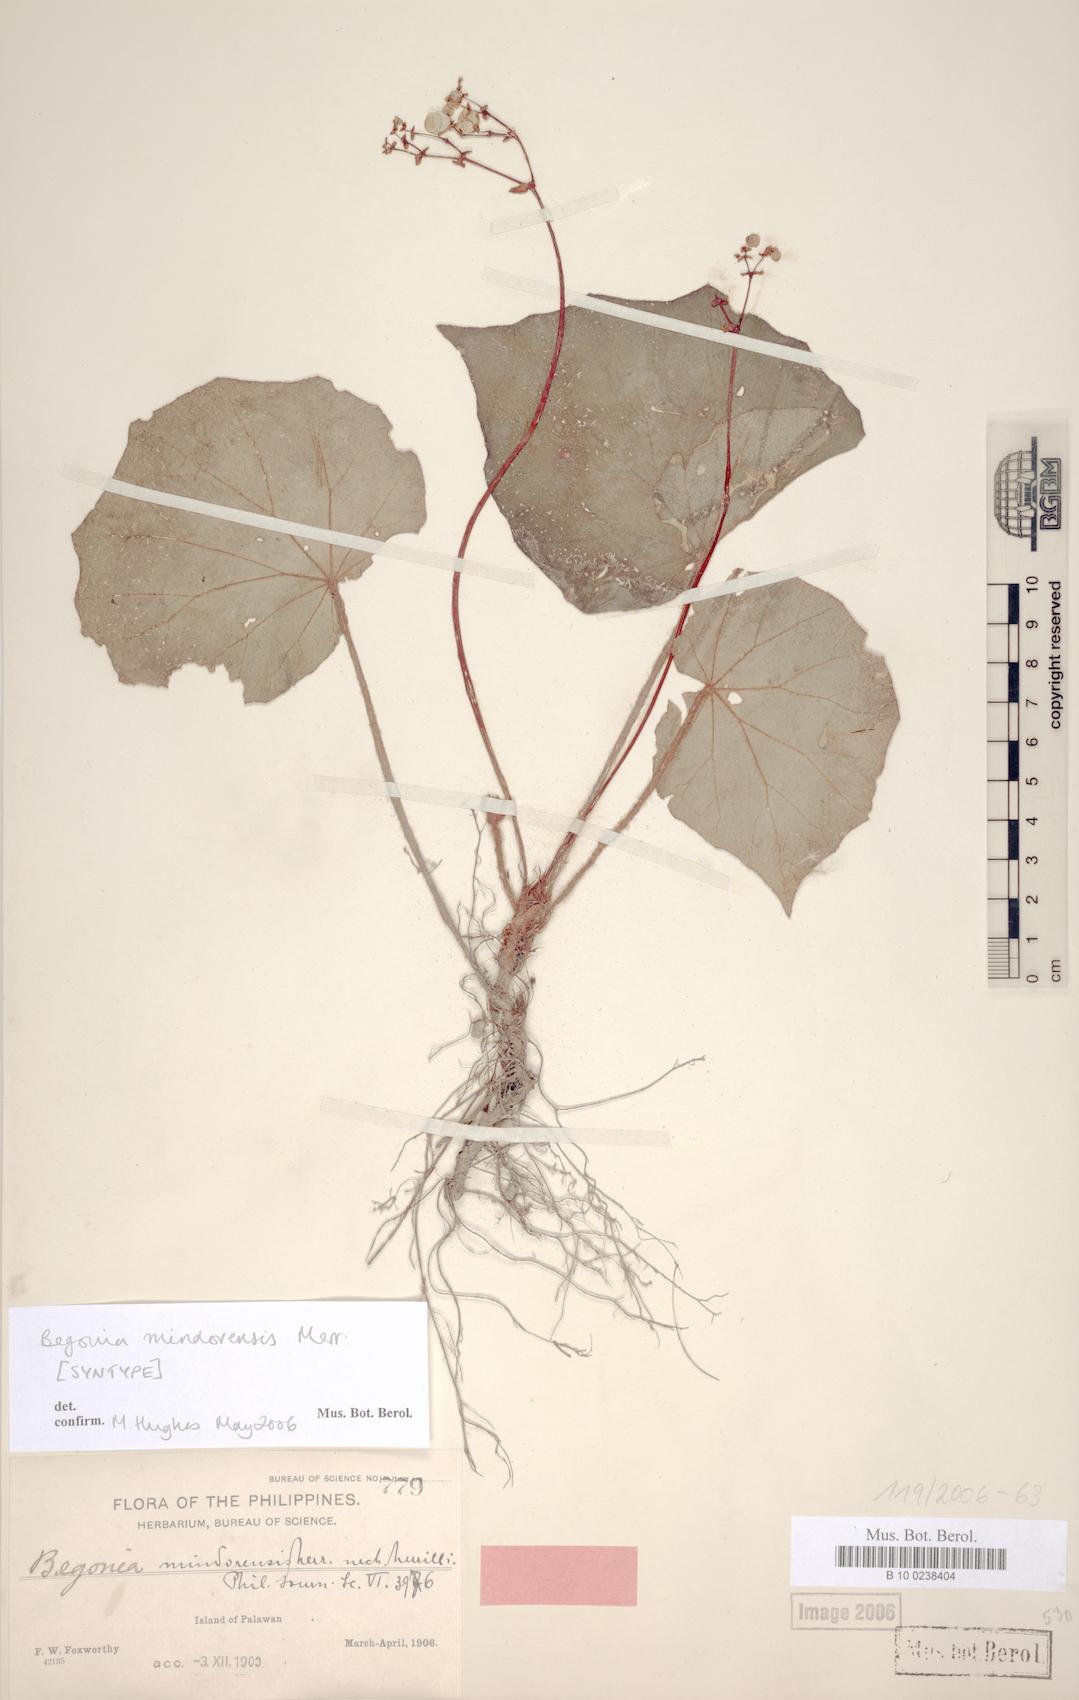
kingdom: Plantae
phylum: Tracheophyta
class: Magnoliopsida
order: Cucurbitales
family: Begoniaceae
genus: Begonia
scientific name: Begonia mindorensis
